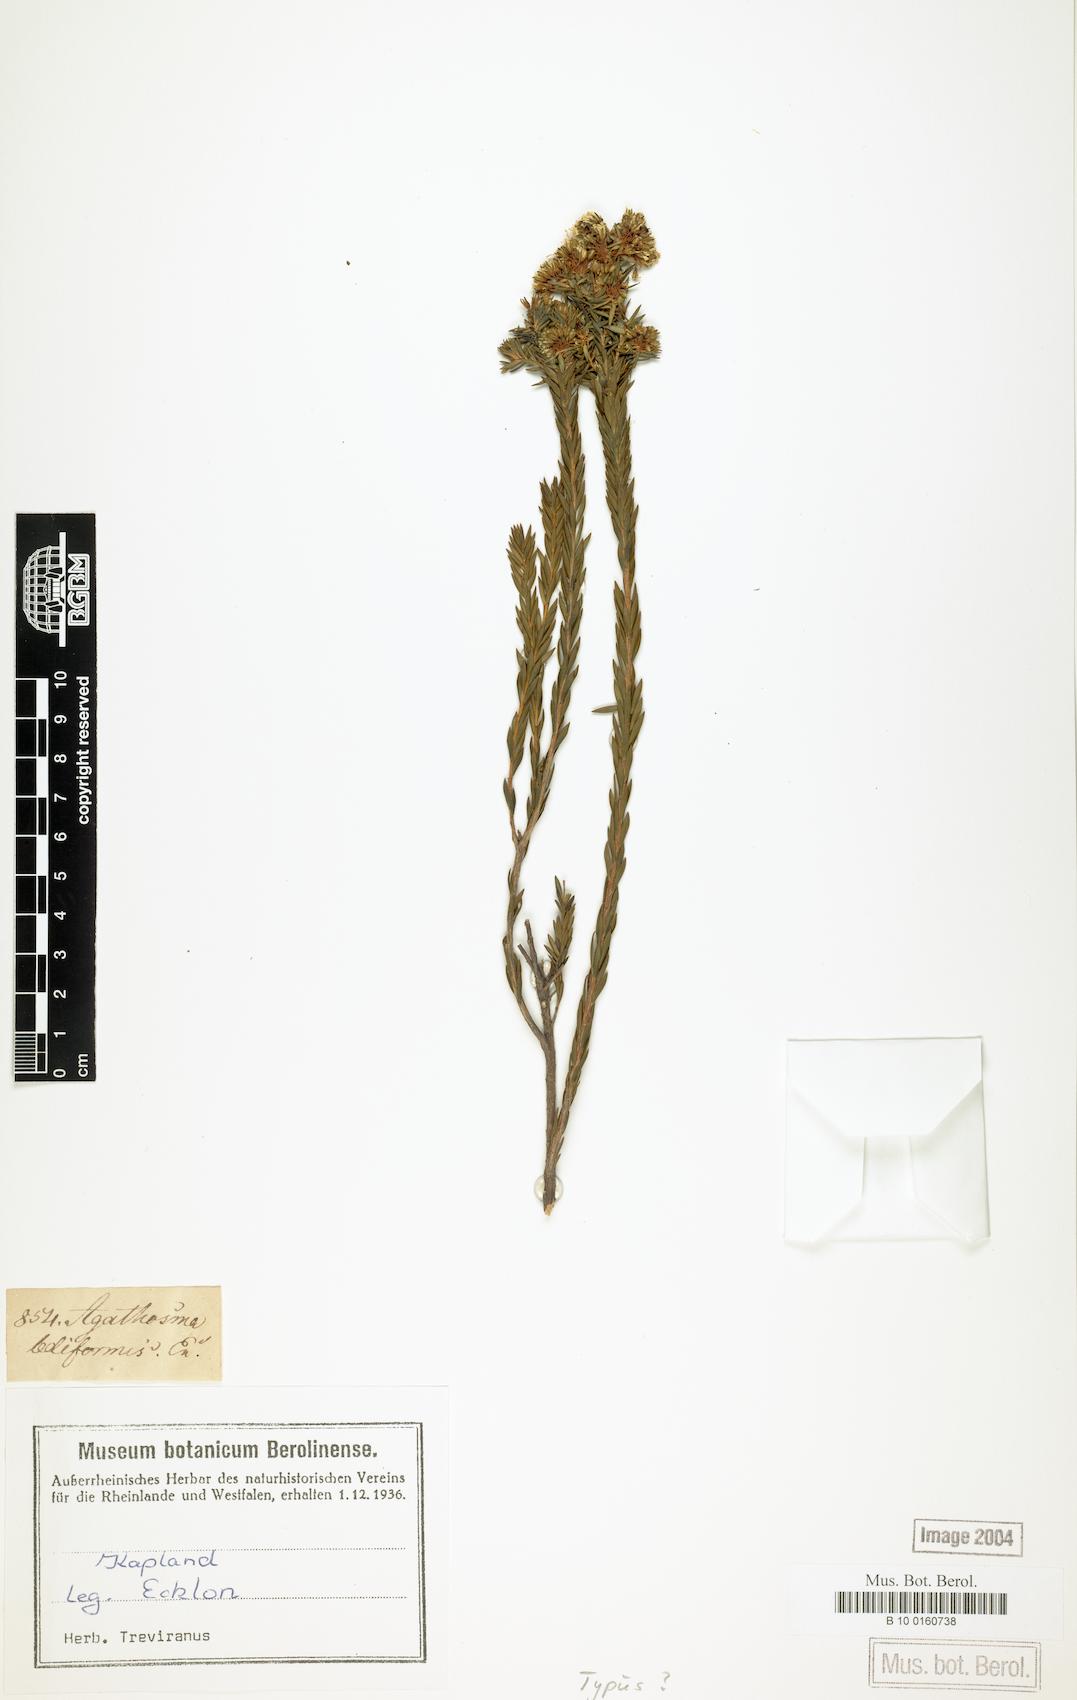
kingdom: Plantae
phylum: Tracheophyta
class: Magnoliopsida
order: Sapindales
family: Rutaceae
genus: Agathosma
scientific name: Agathosma bifida
